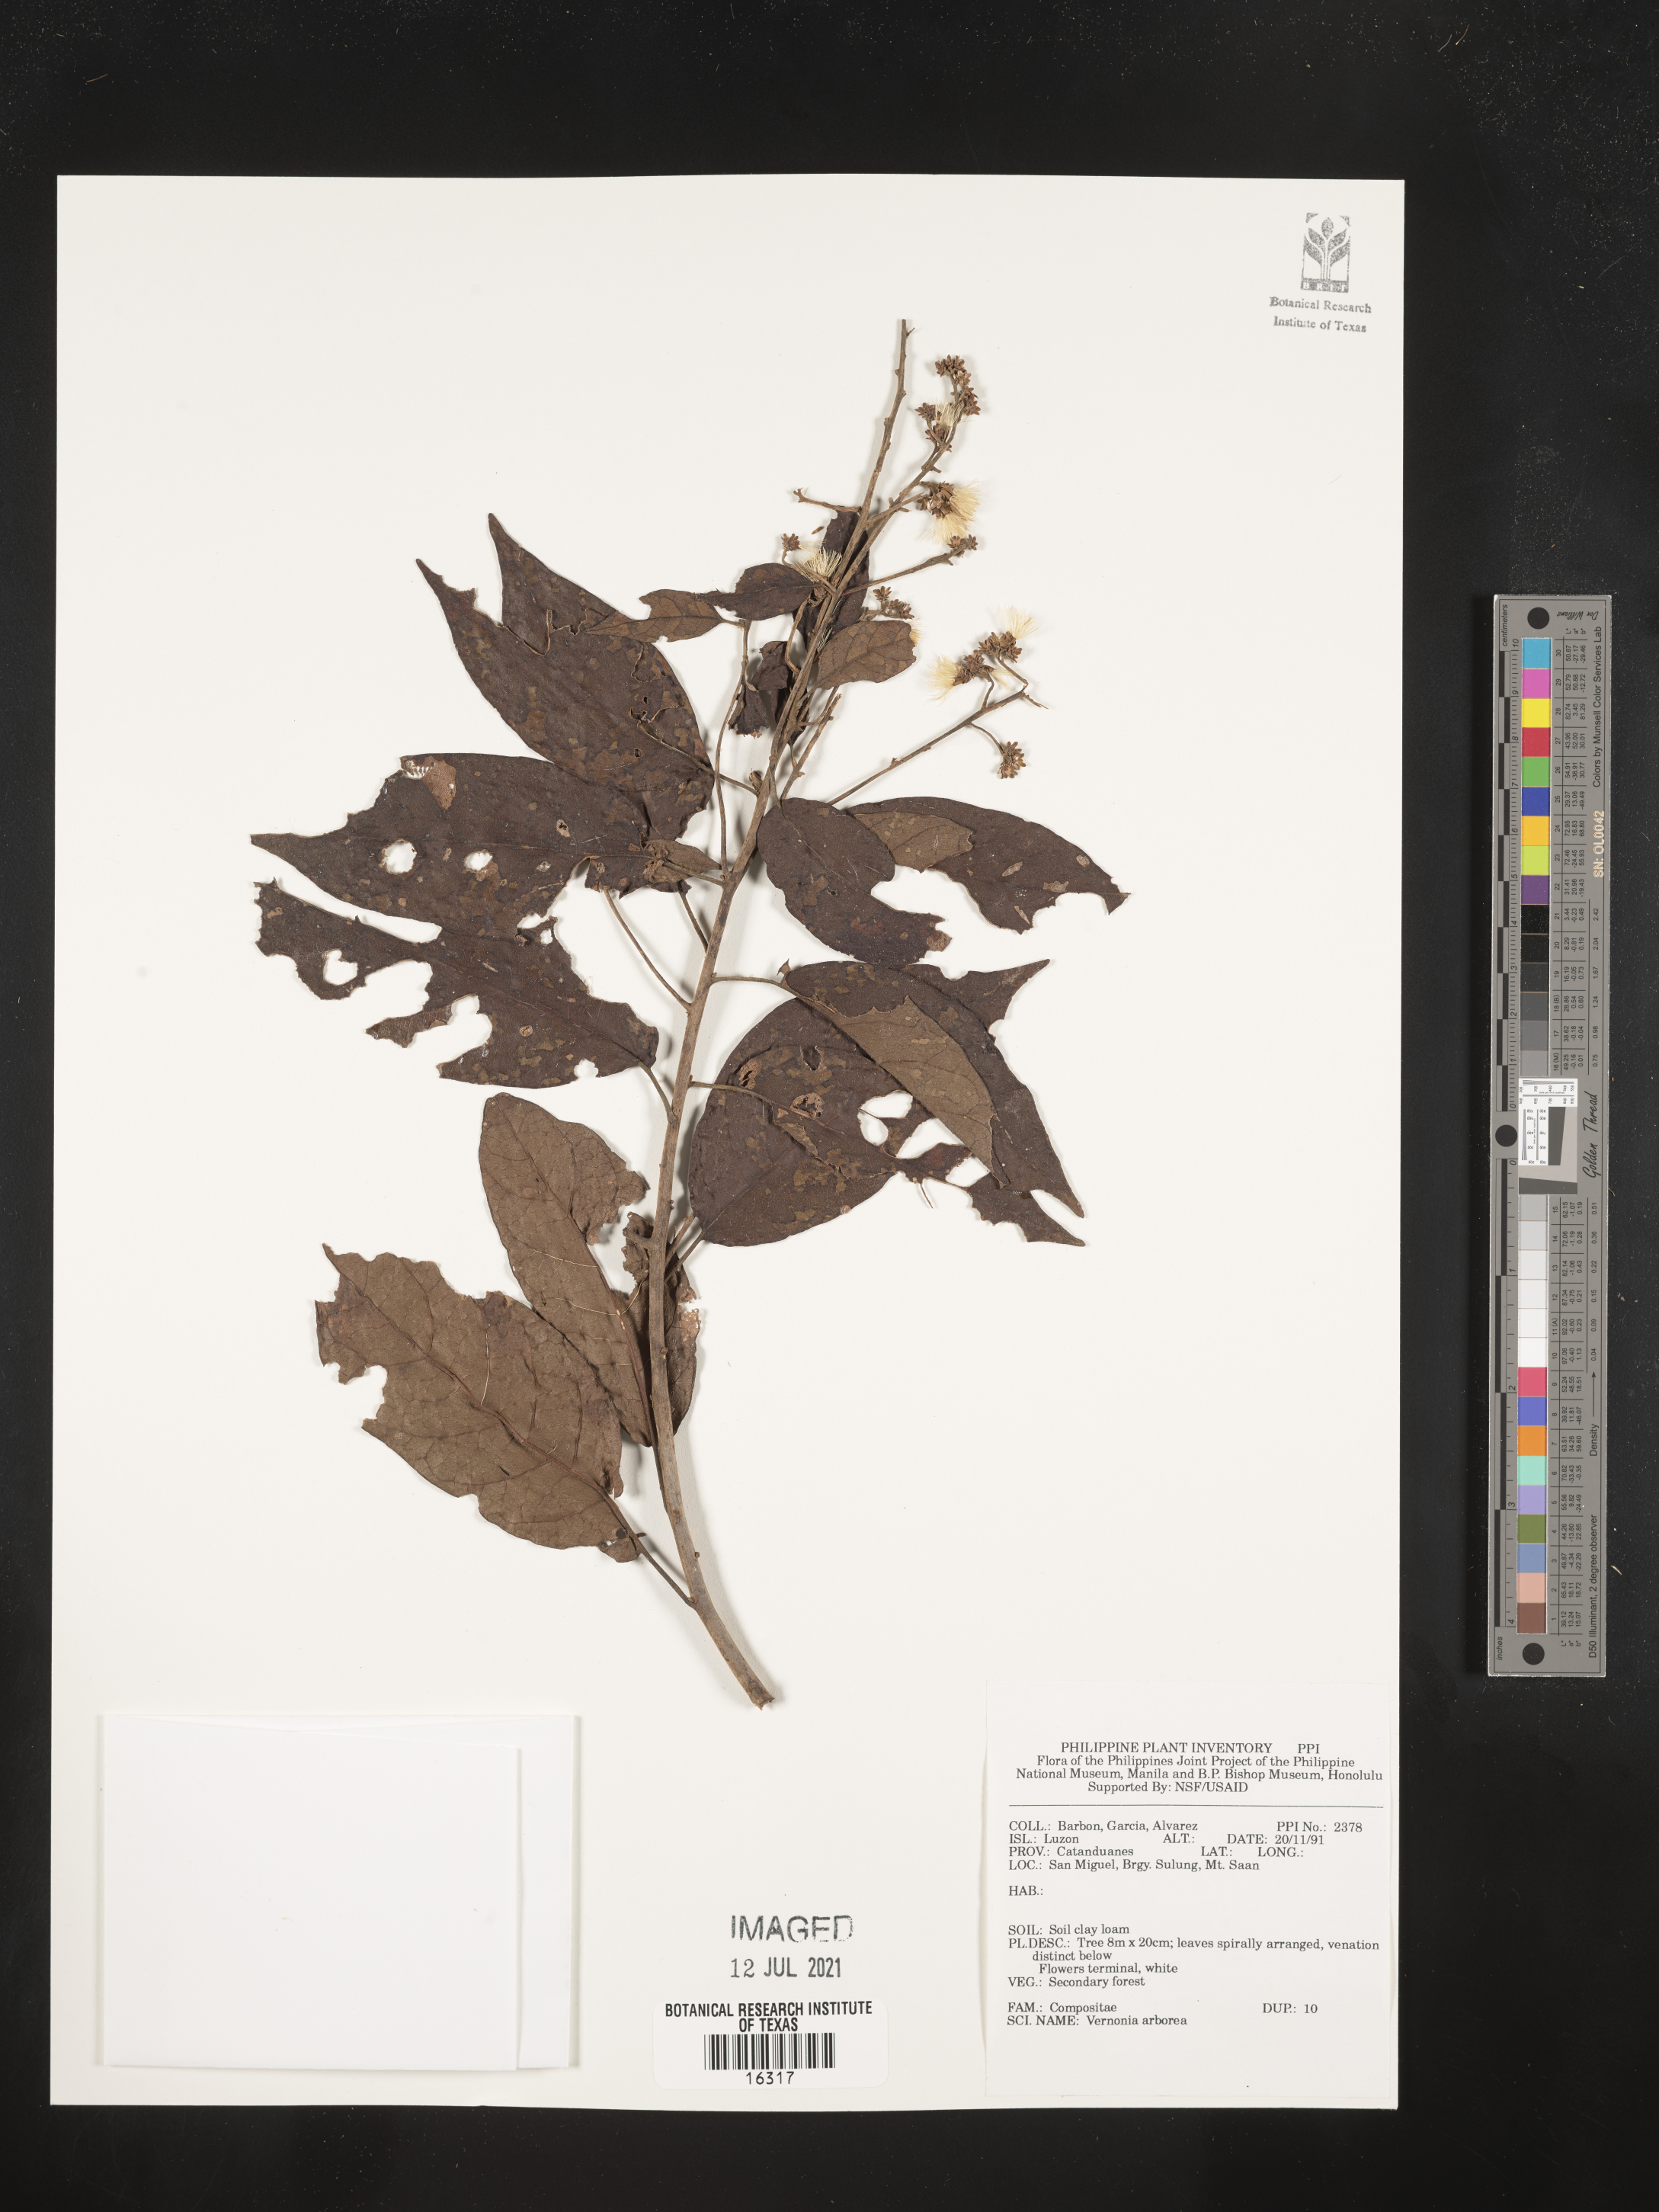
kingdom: Plantae
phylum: Tracheophyta
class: Magnoliopsida
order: Asterales
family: Asteraceae
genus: Strobocalyx
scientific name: Strobocalyx arborea
